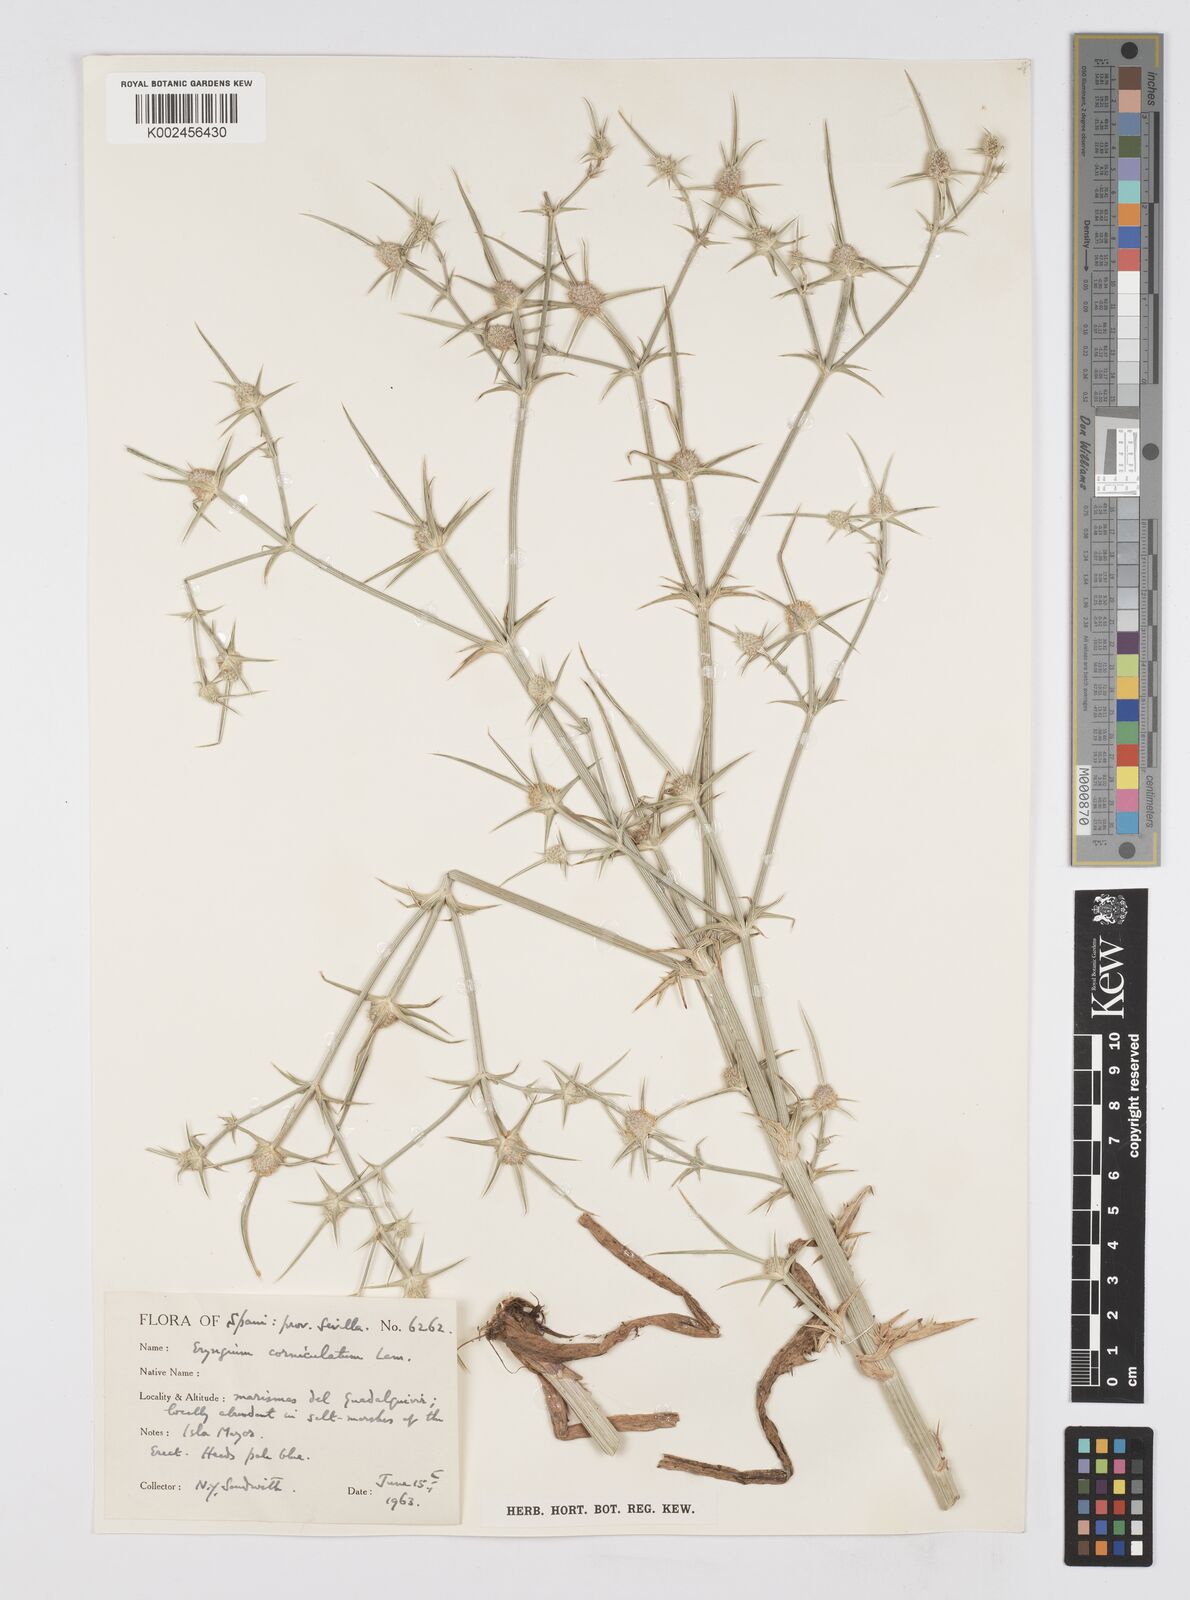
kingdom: Plantae
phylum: Tracheophyta
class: Magnoliopsida
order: Apiales
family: Apiaceae
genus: Eryngium
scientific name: Eryngium corniculatum
